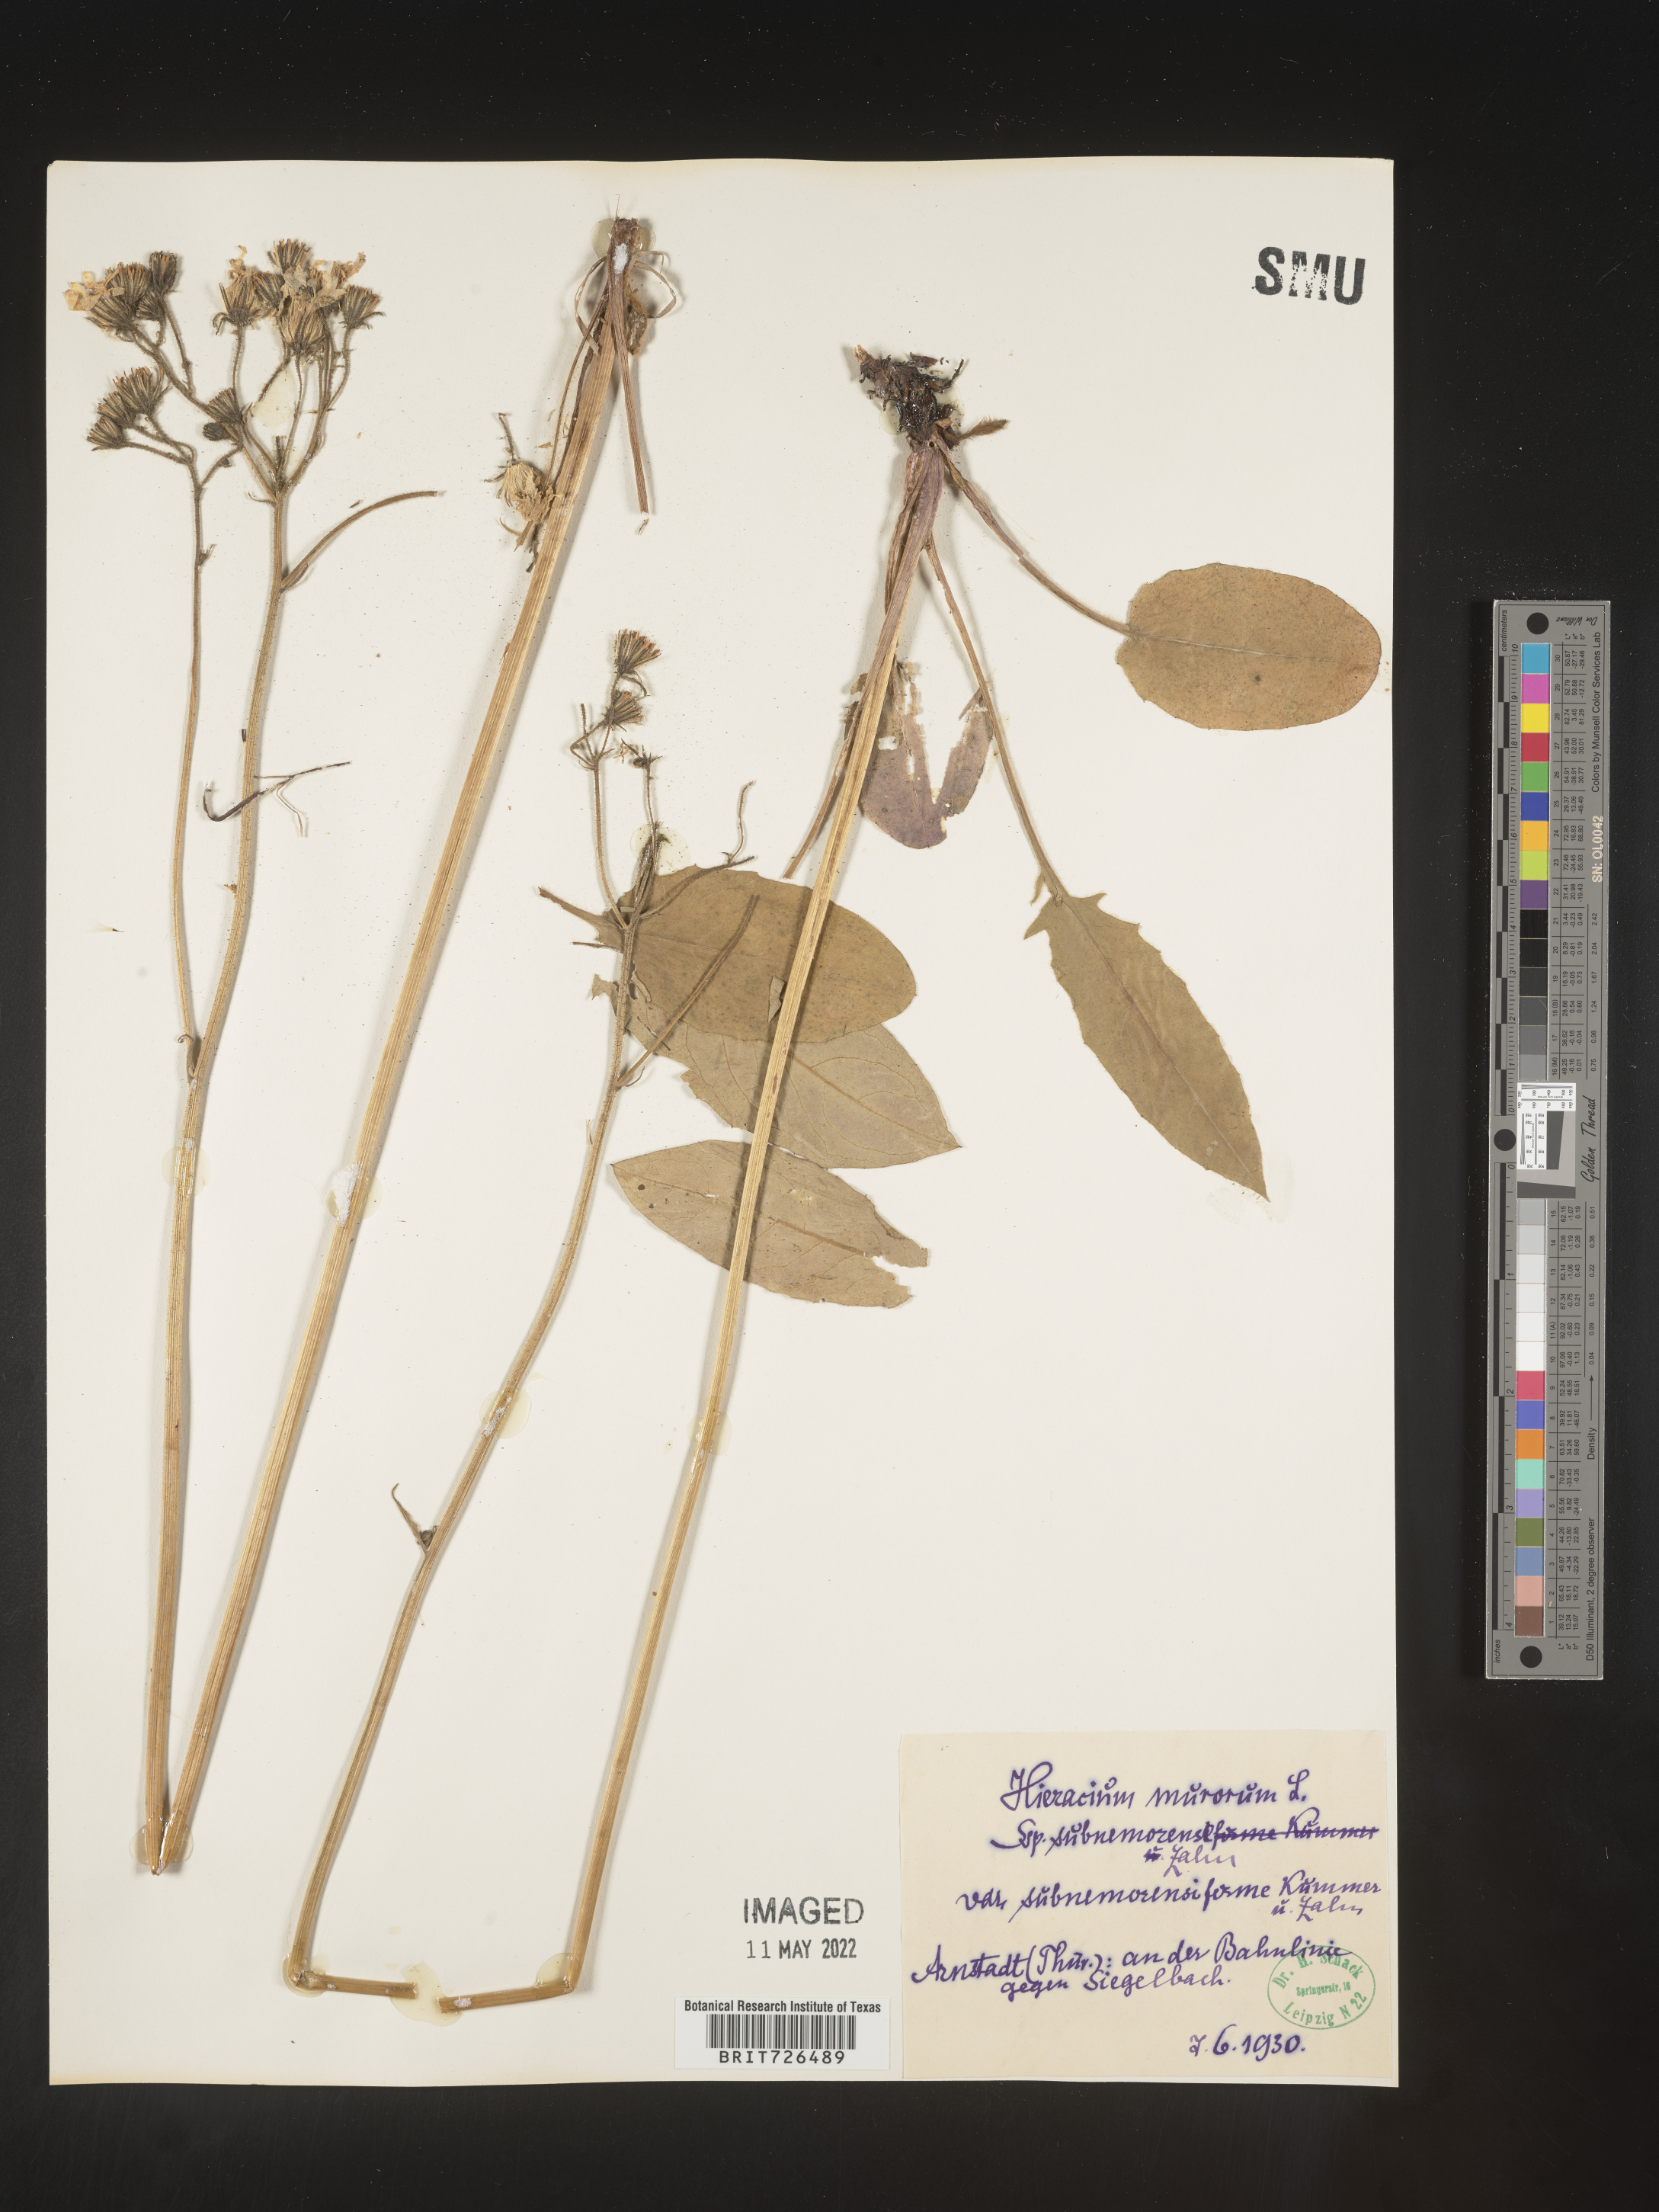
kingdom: Plantae
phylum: Tracheophyta
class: Magnoliopsida
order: Asterales
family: Asteraceae
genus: Hieracium
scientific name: Hieracium
